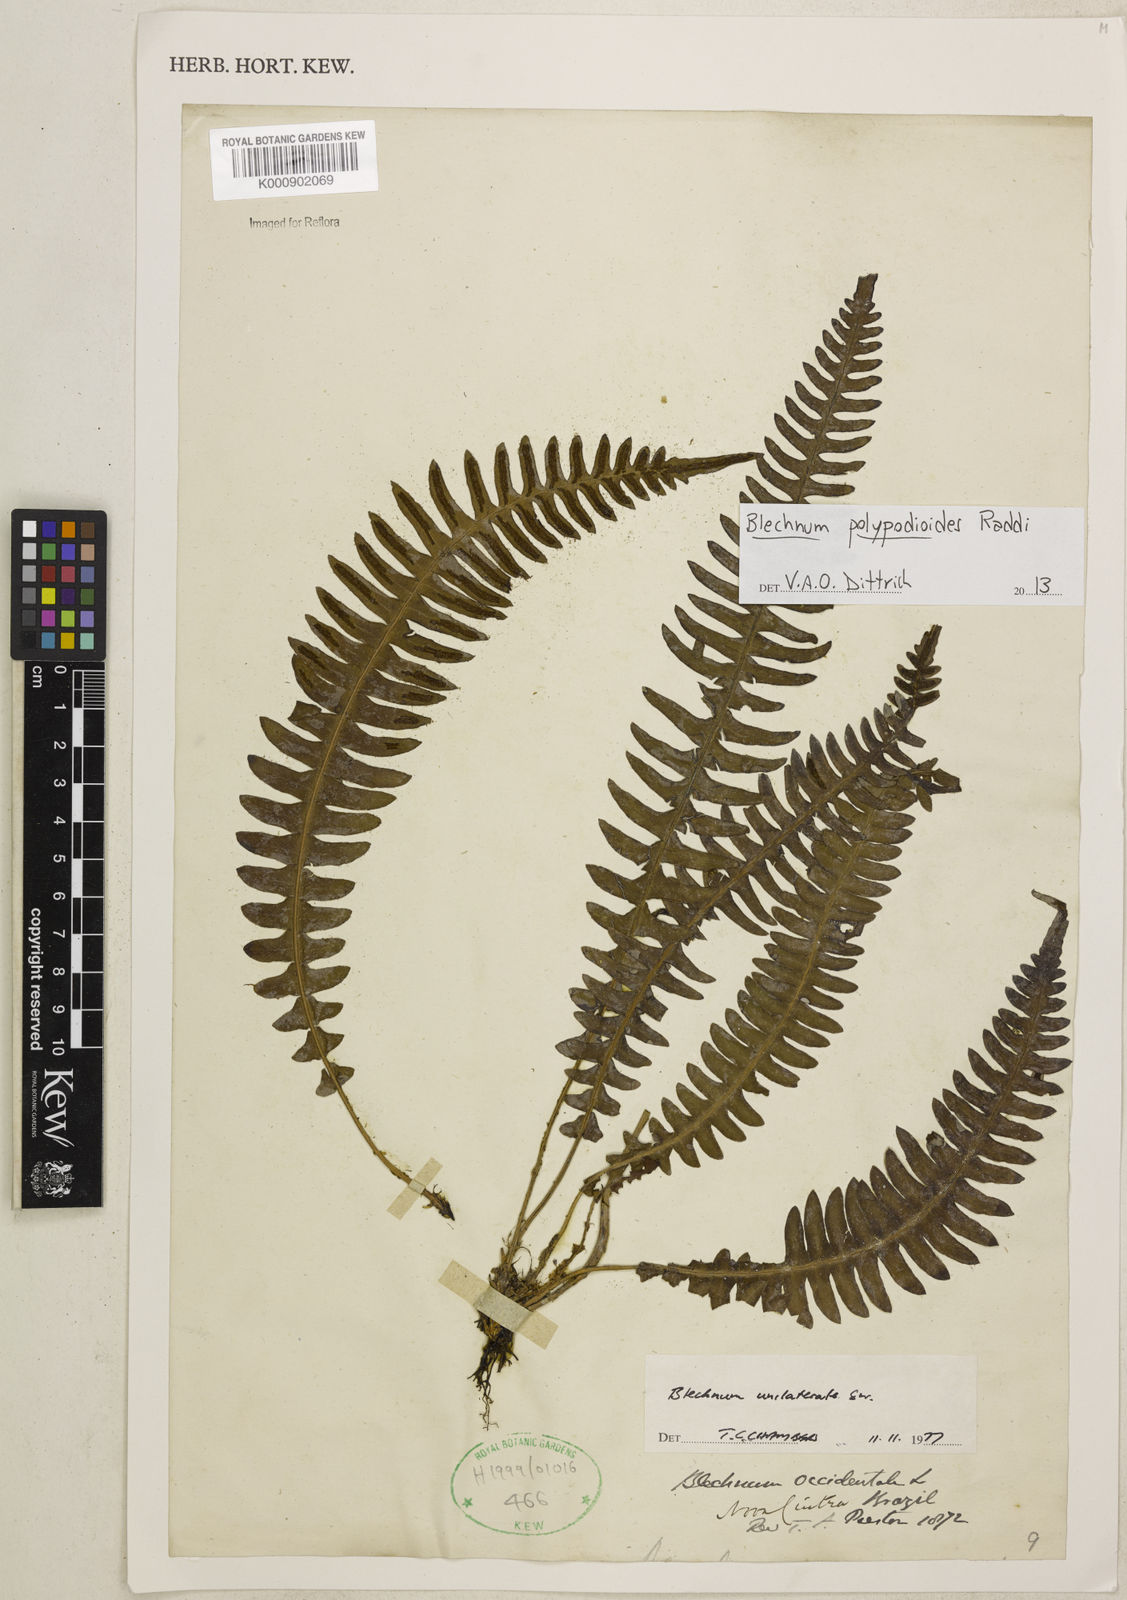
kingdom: Plantae
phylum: Tracheophyta
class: Polypodiopsida
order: Polypodiales
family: Blechnaceae
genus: Blechnum
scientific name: Blechnum polypodioides
